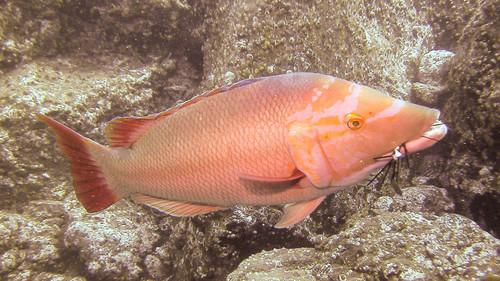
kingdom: Animalia
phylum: Chordata
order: Perciformes
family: Labridae
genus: Bodianus
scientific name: Bodianus scrofa
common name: Barred hogfish
